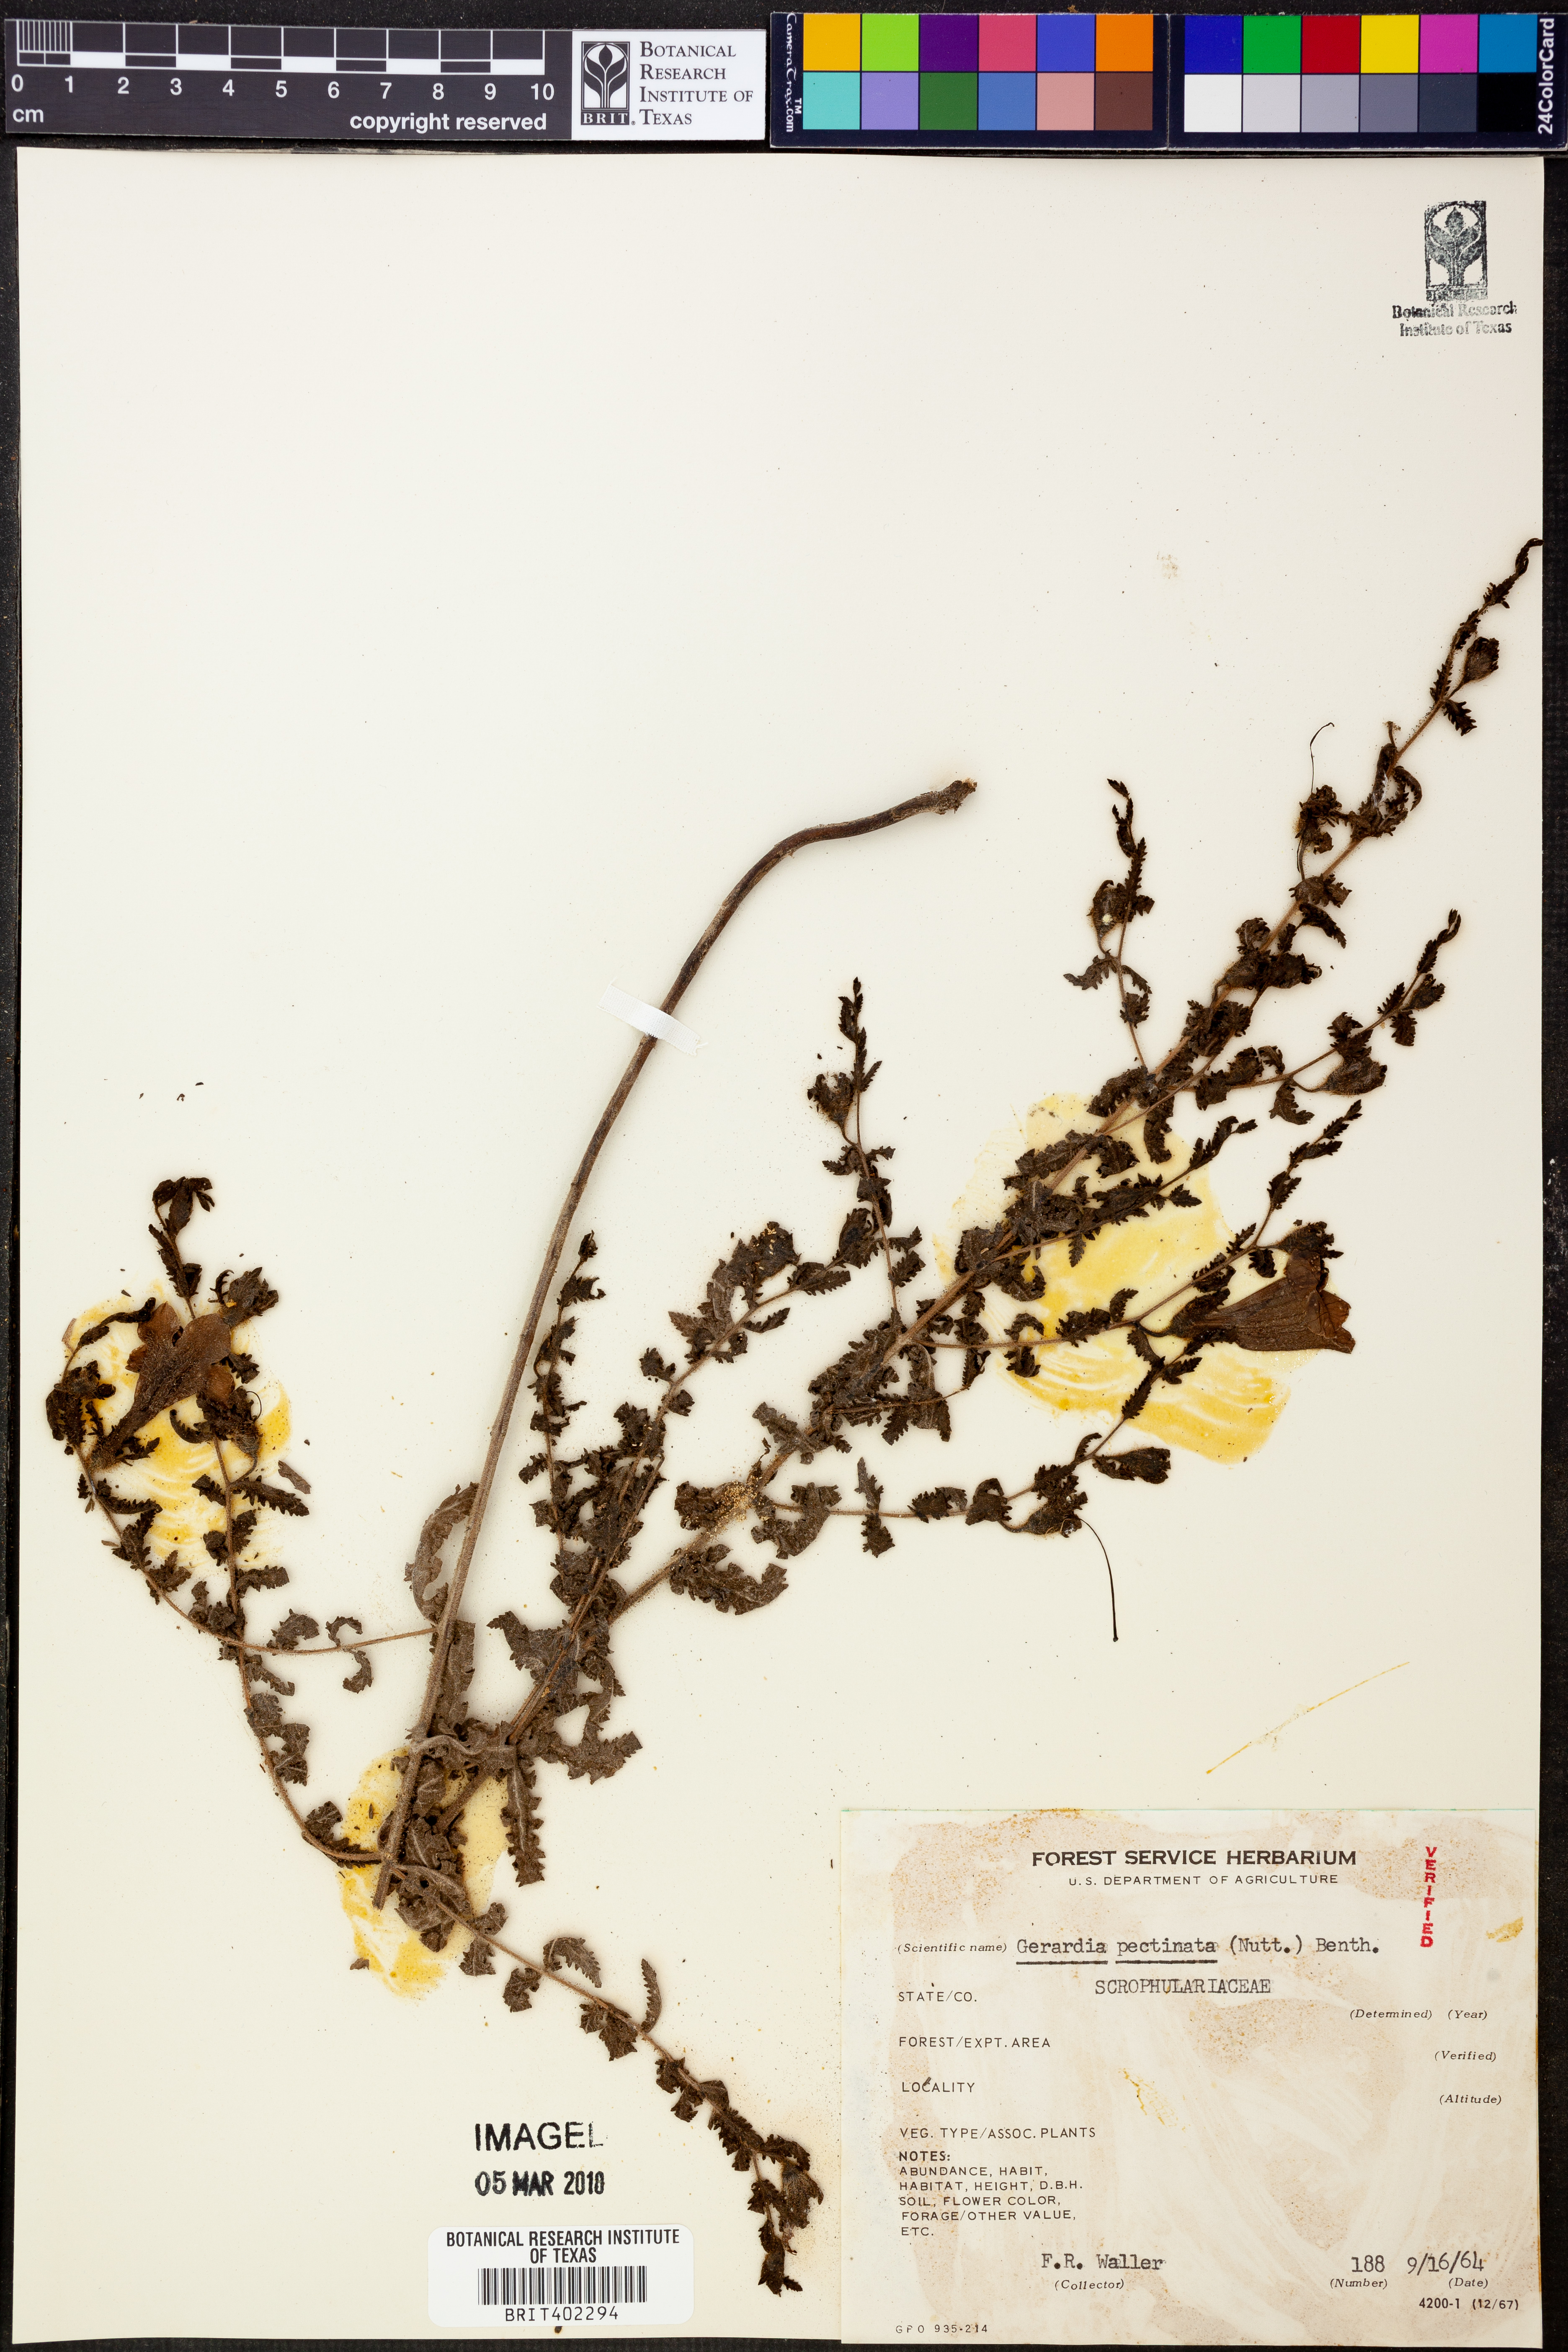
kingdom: Plantae
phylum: Tracheophyta
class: Magnoliopsida
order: Lamiales
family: Orobanchaceae
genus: Aureolaria
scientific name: Aureolaria pectinata
